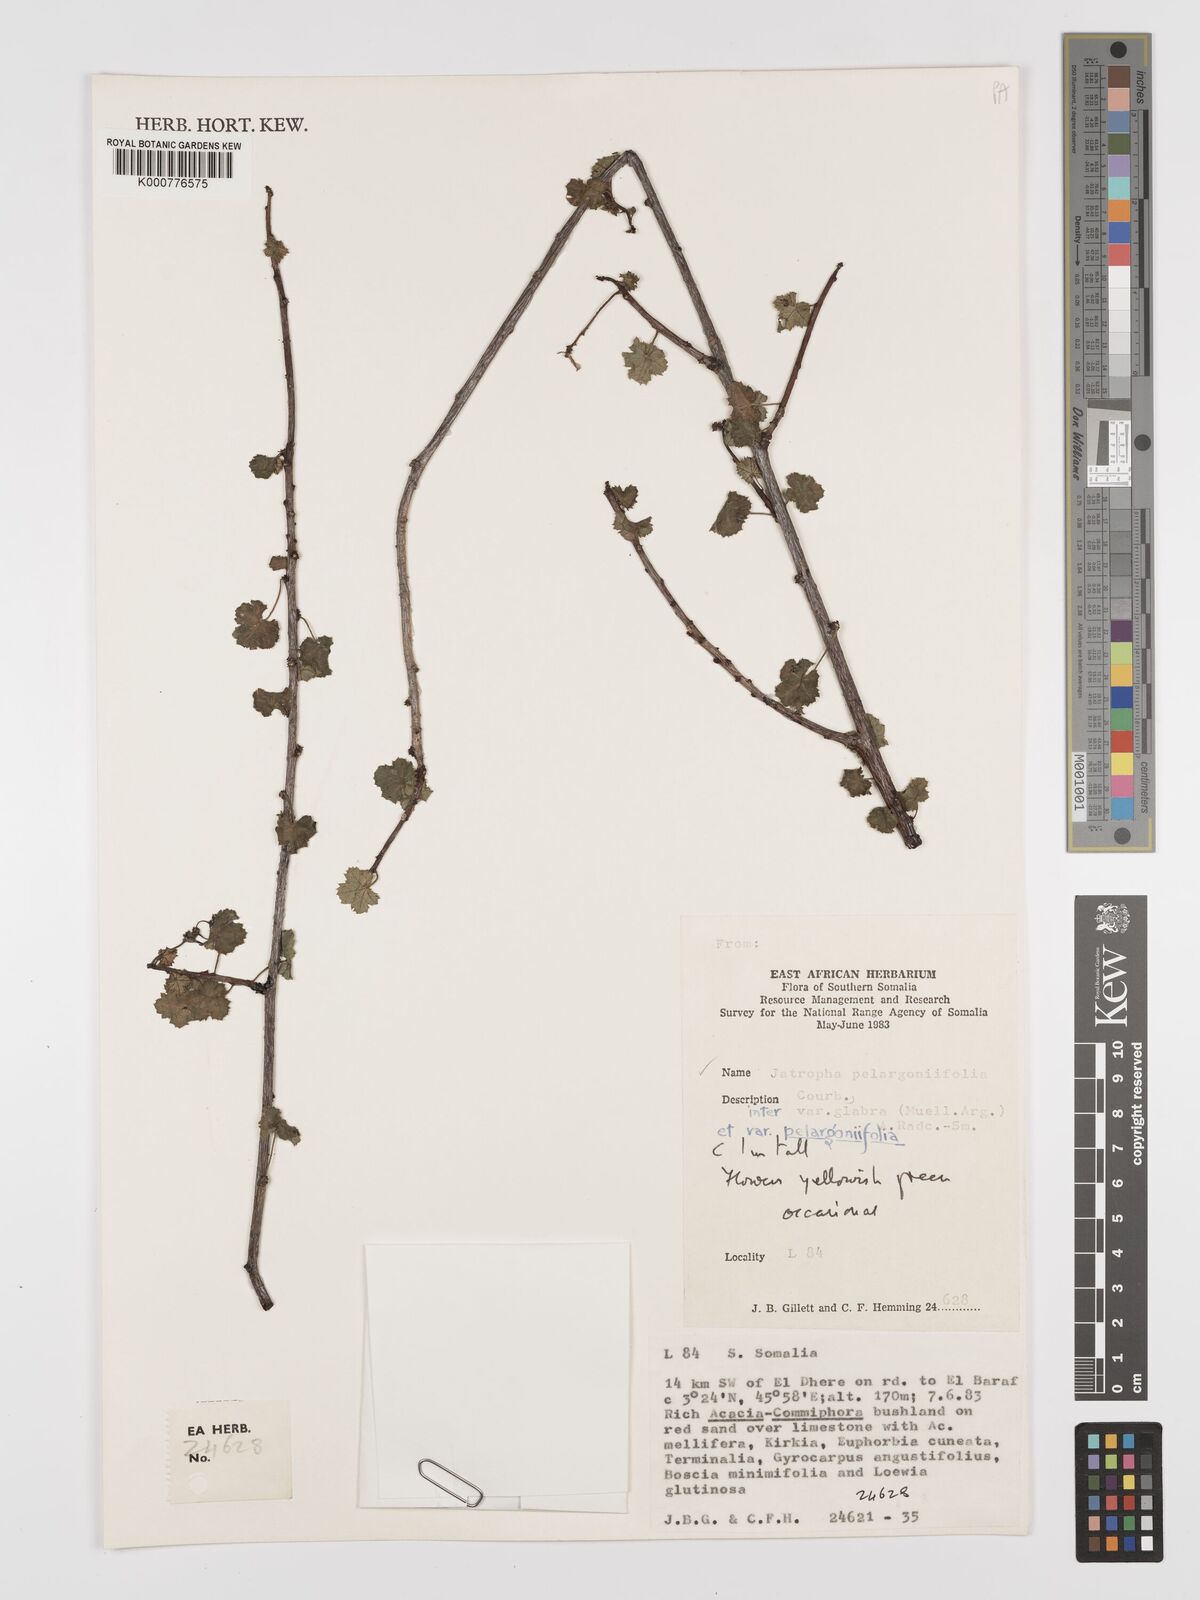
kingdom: Plantae
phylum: Tracheophyta
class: Magnoliopsida
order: Malpighiales
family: Euphorbiaceae
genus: Jatropha
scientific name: Jatropha pelargoniifolia
